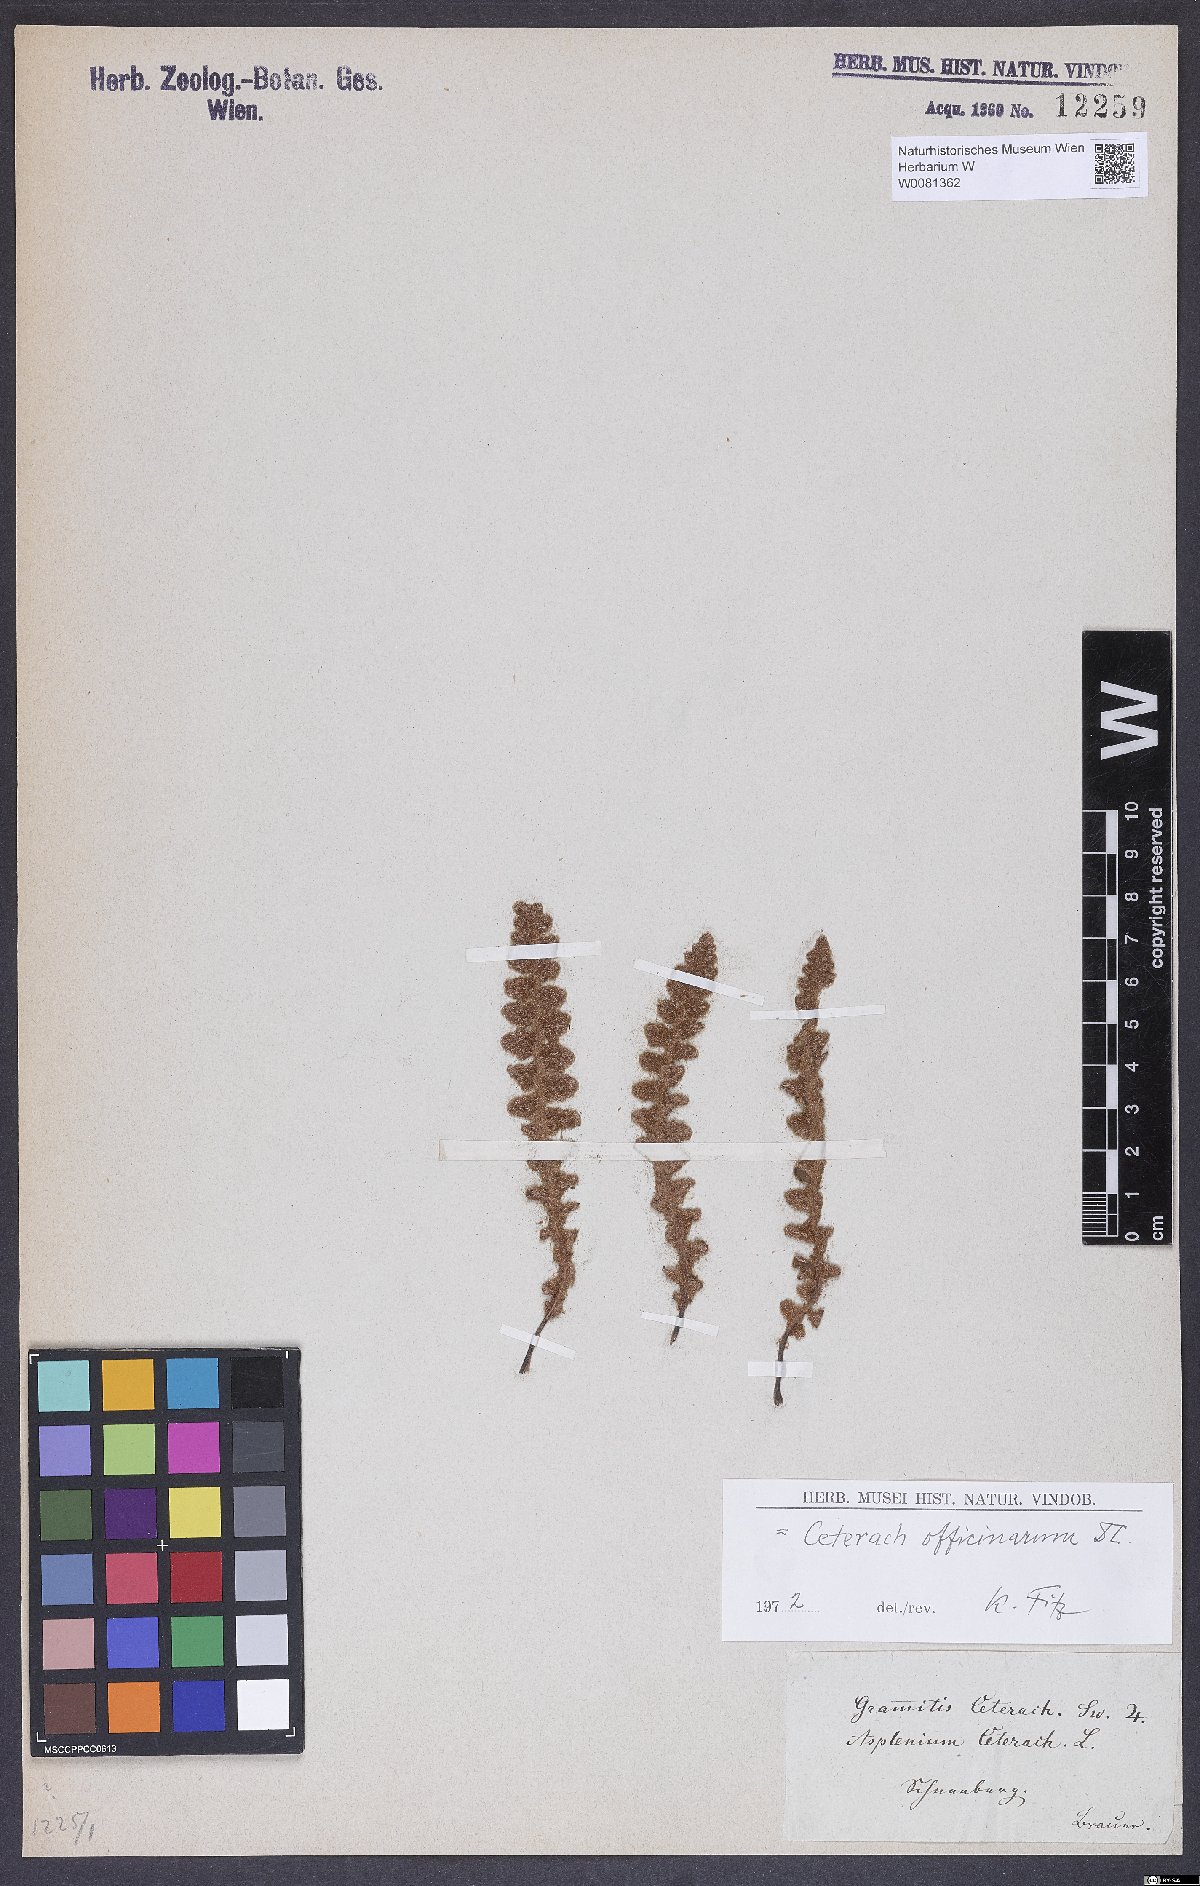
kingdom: Plantae
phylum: Tracheophyta
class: Polypodiopsida
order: Polypodiales
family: Aspleniaceae
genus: Asplenium
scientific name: Asplenium ceterach
